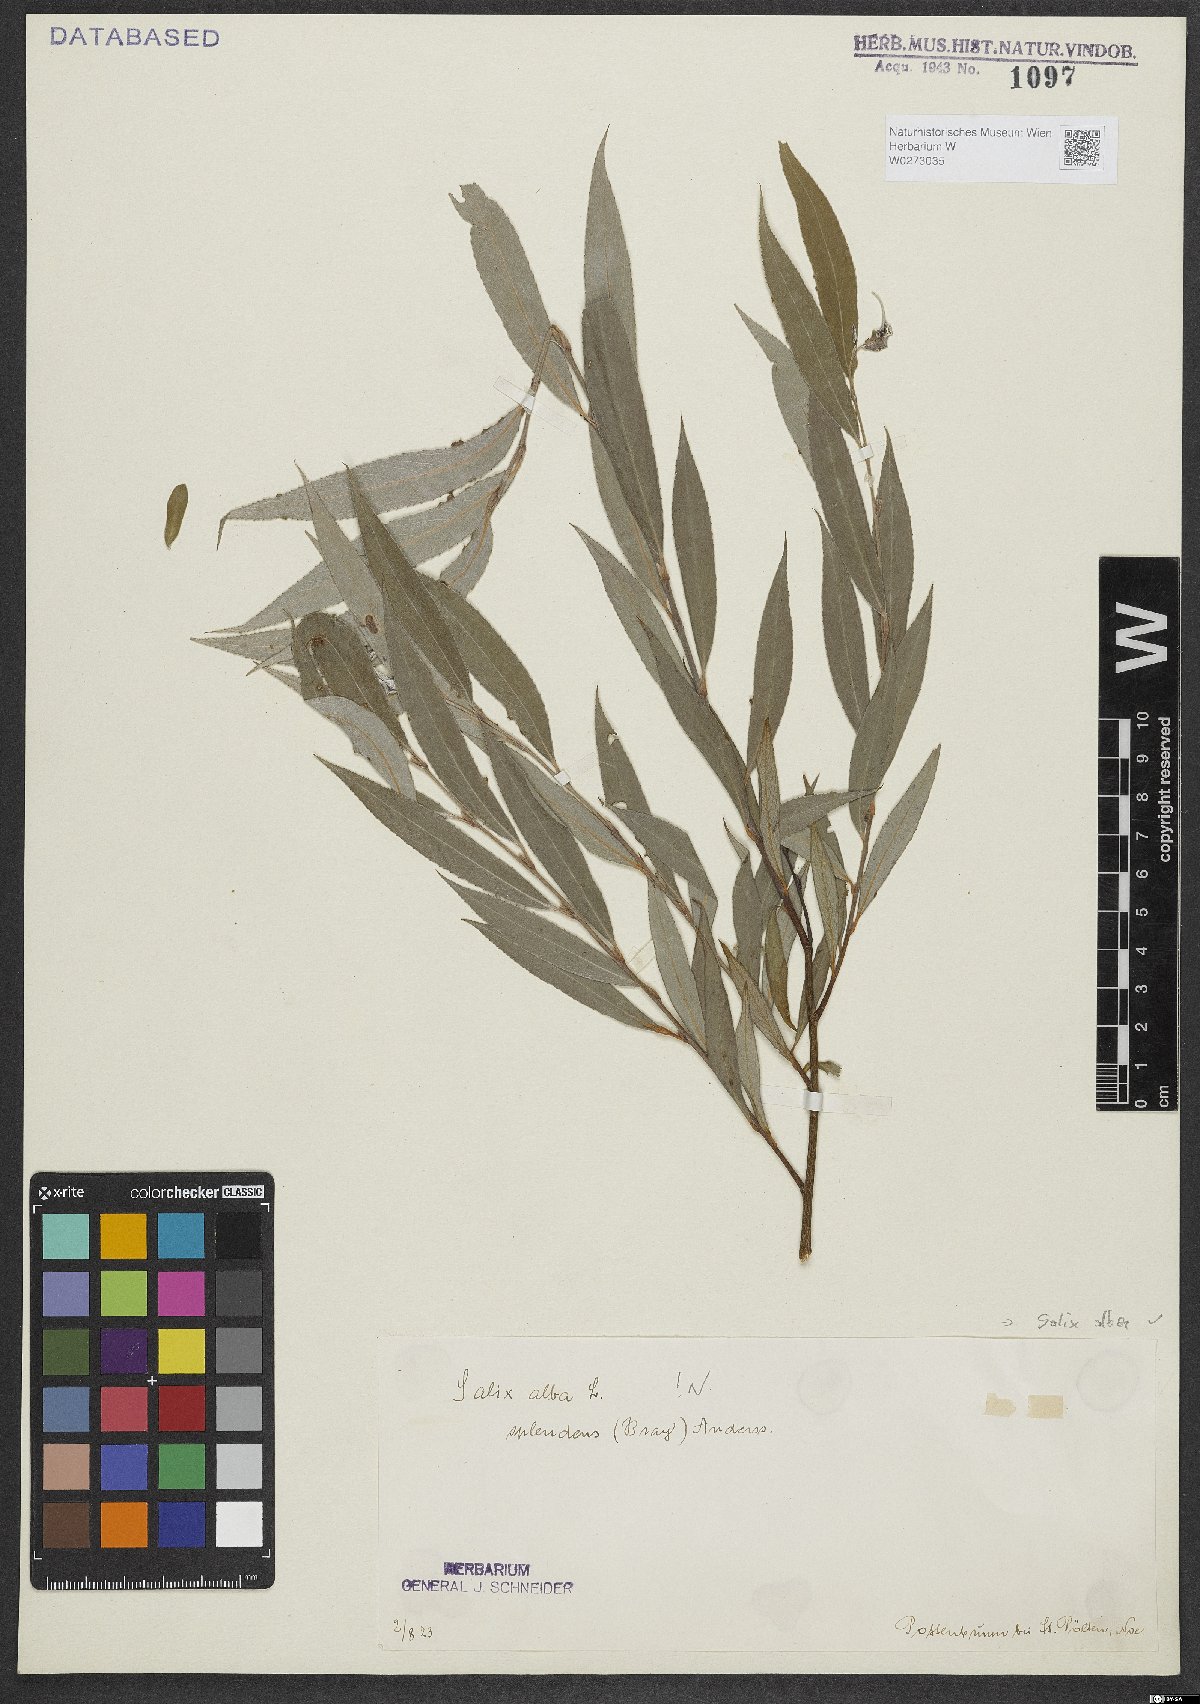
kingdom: Plantae
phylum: Tracheophyta
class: Magnoliopsida
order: Malpighiales
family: Salicaceae
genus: Salix
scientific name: Salix alba
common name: White willow
